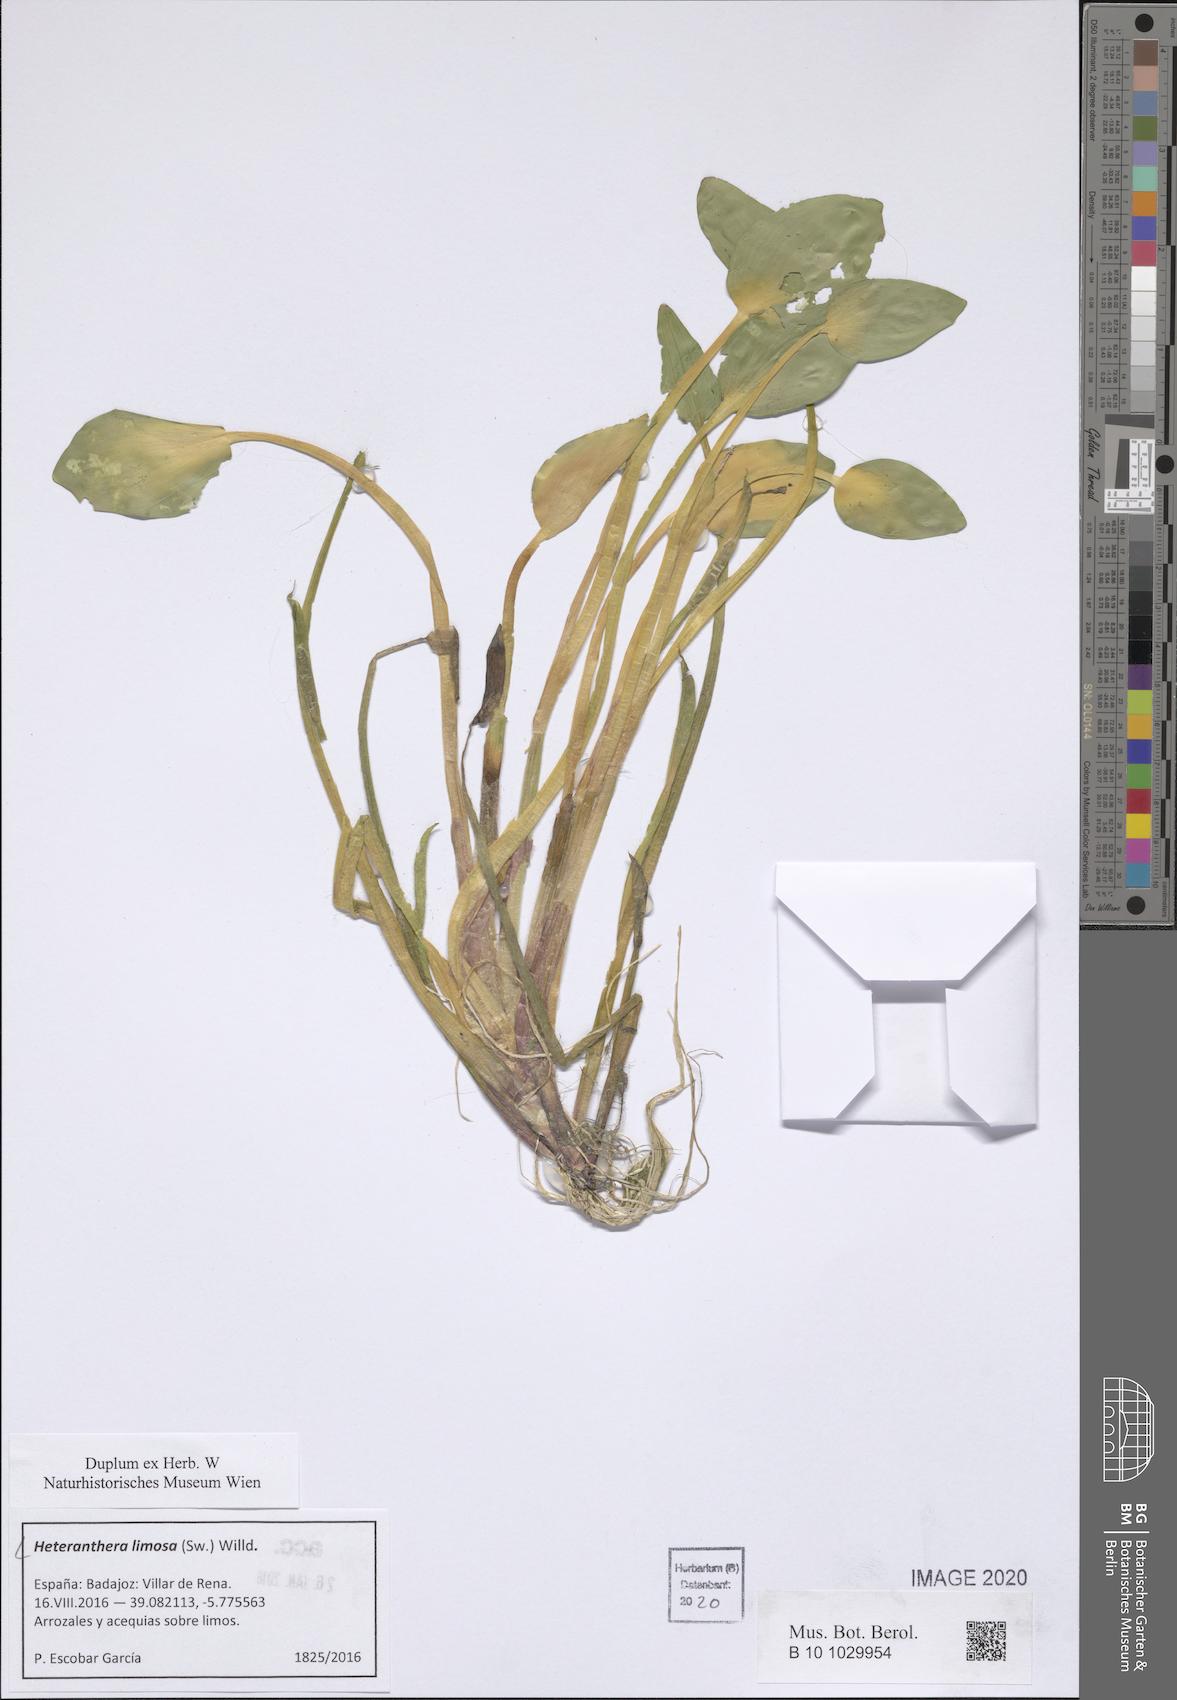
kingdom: Plantae
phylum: Tracheophyta
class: Liliopsida
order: Commelinales
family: Pontederiaceae
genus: Heteranthera
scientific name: Heteranthera limosa
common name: Blue mud-plantain
